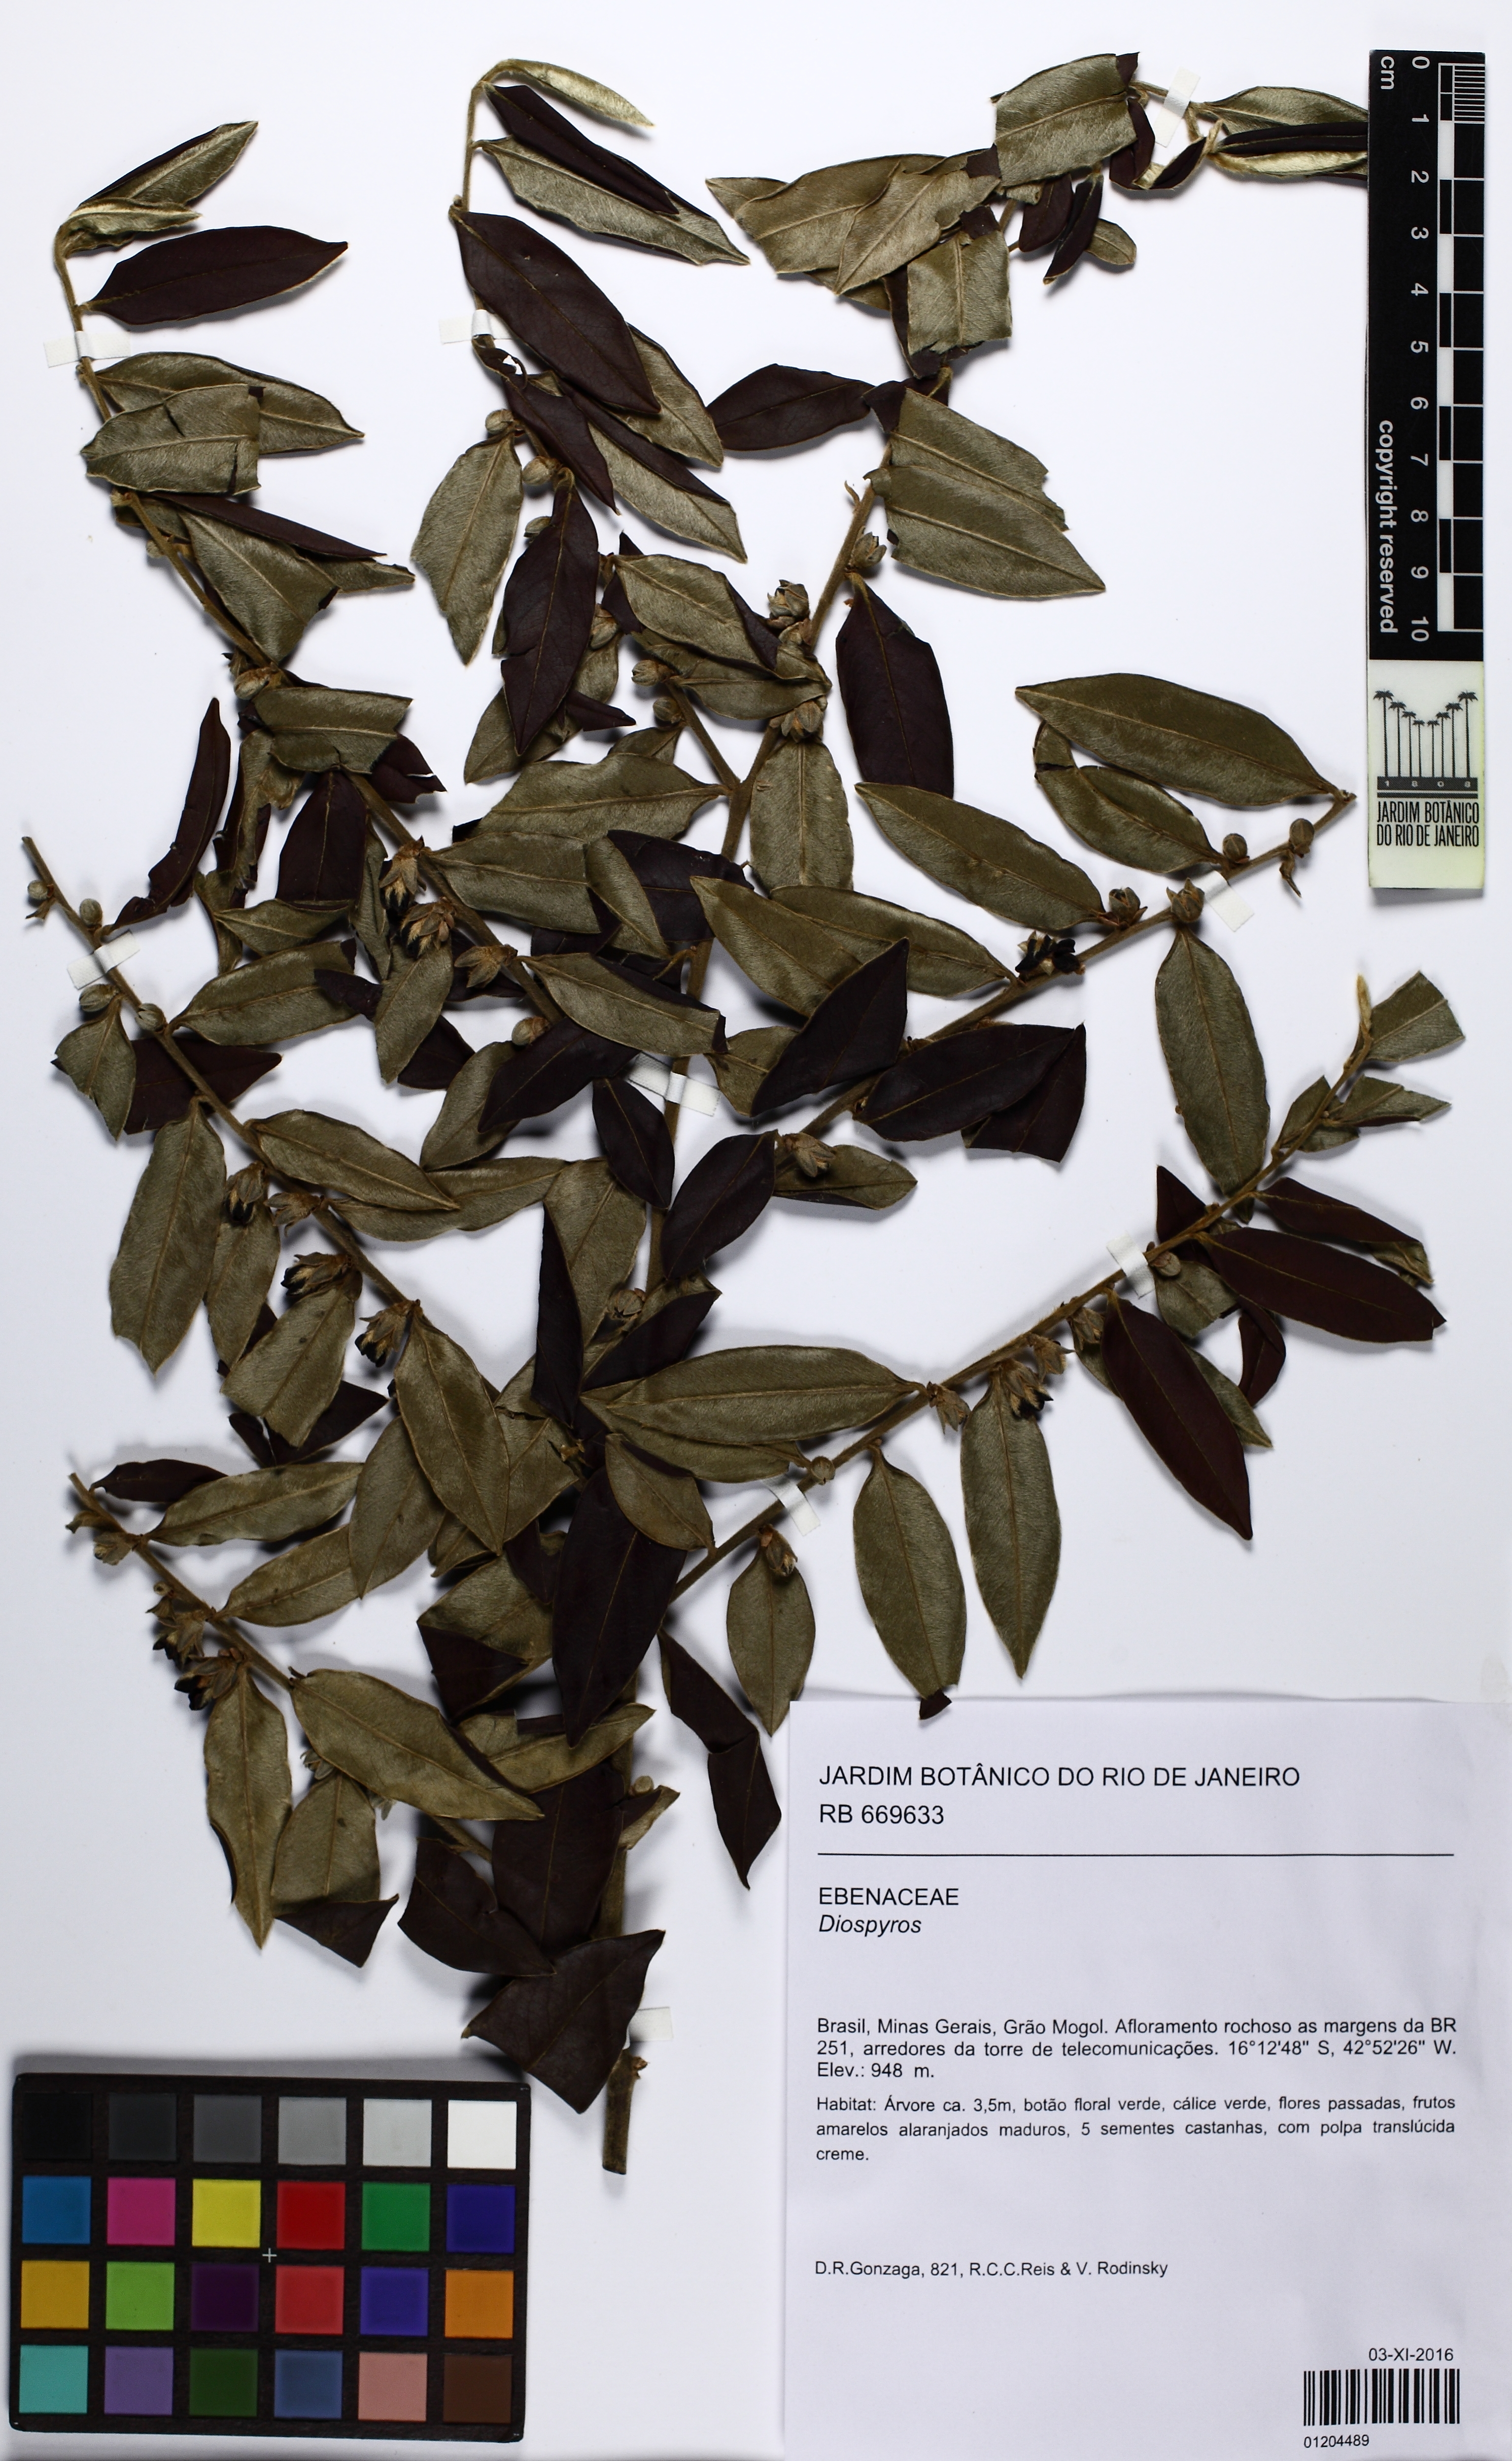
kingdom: Plantae
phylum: Tracheophyta
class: Magnoliopsida
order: Ericales
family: Ebenaceae
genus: Diospyros
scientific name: Diospyros
